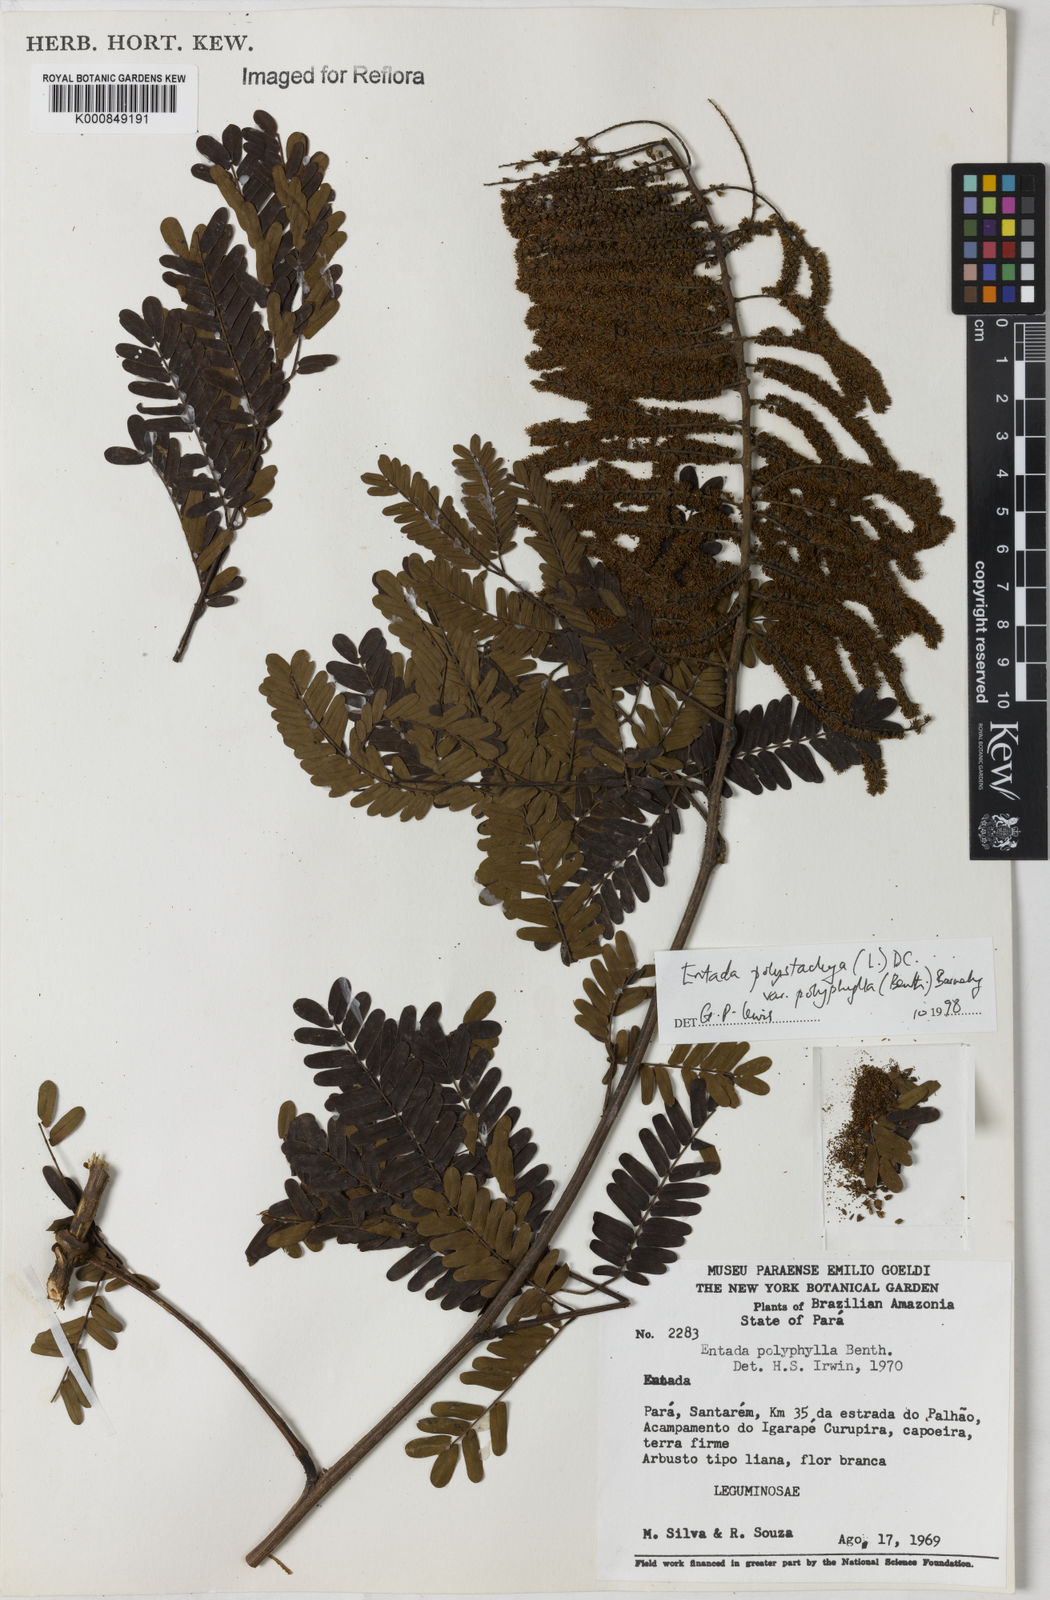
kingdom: Plantae
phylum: Tracheophyta
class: Magnoliopsida
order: Fabales
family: Fabaceae
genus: Entada
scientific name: Entada polyphylla
